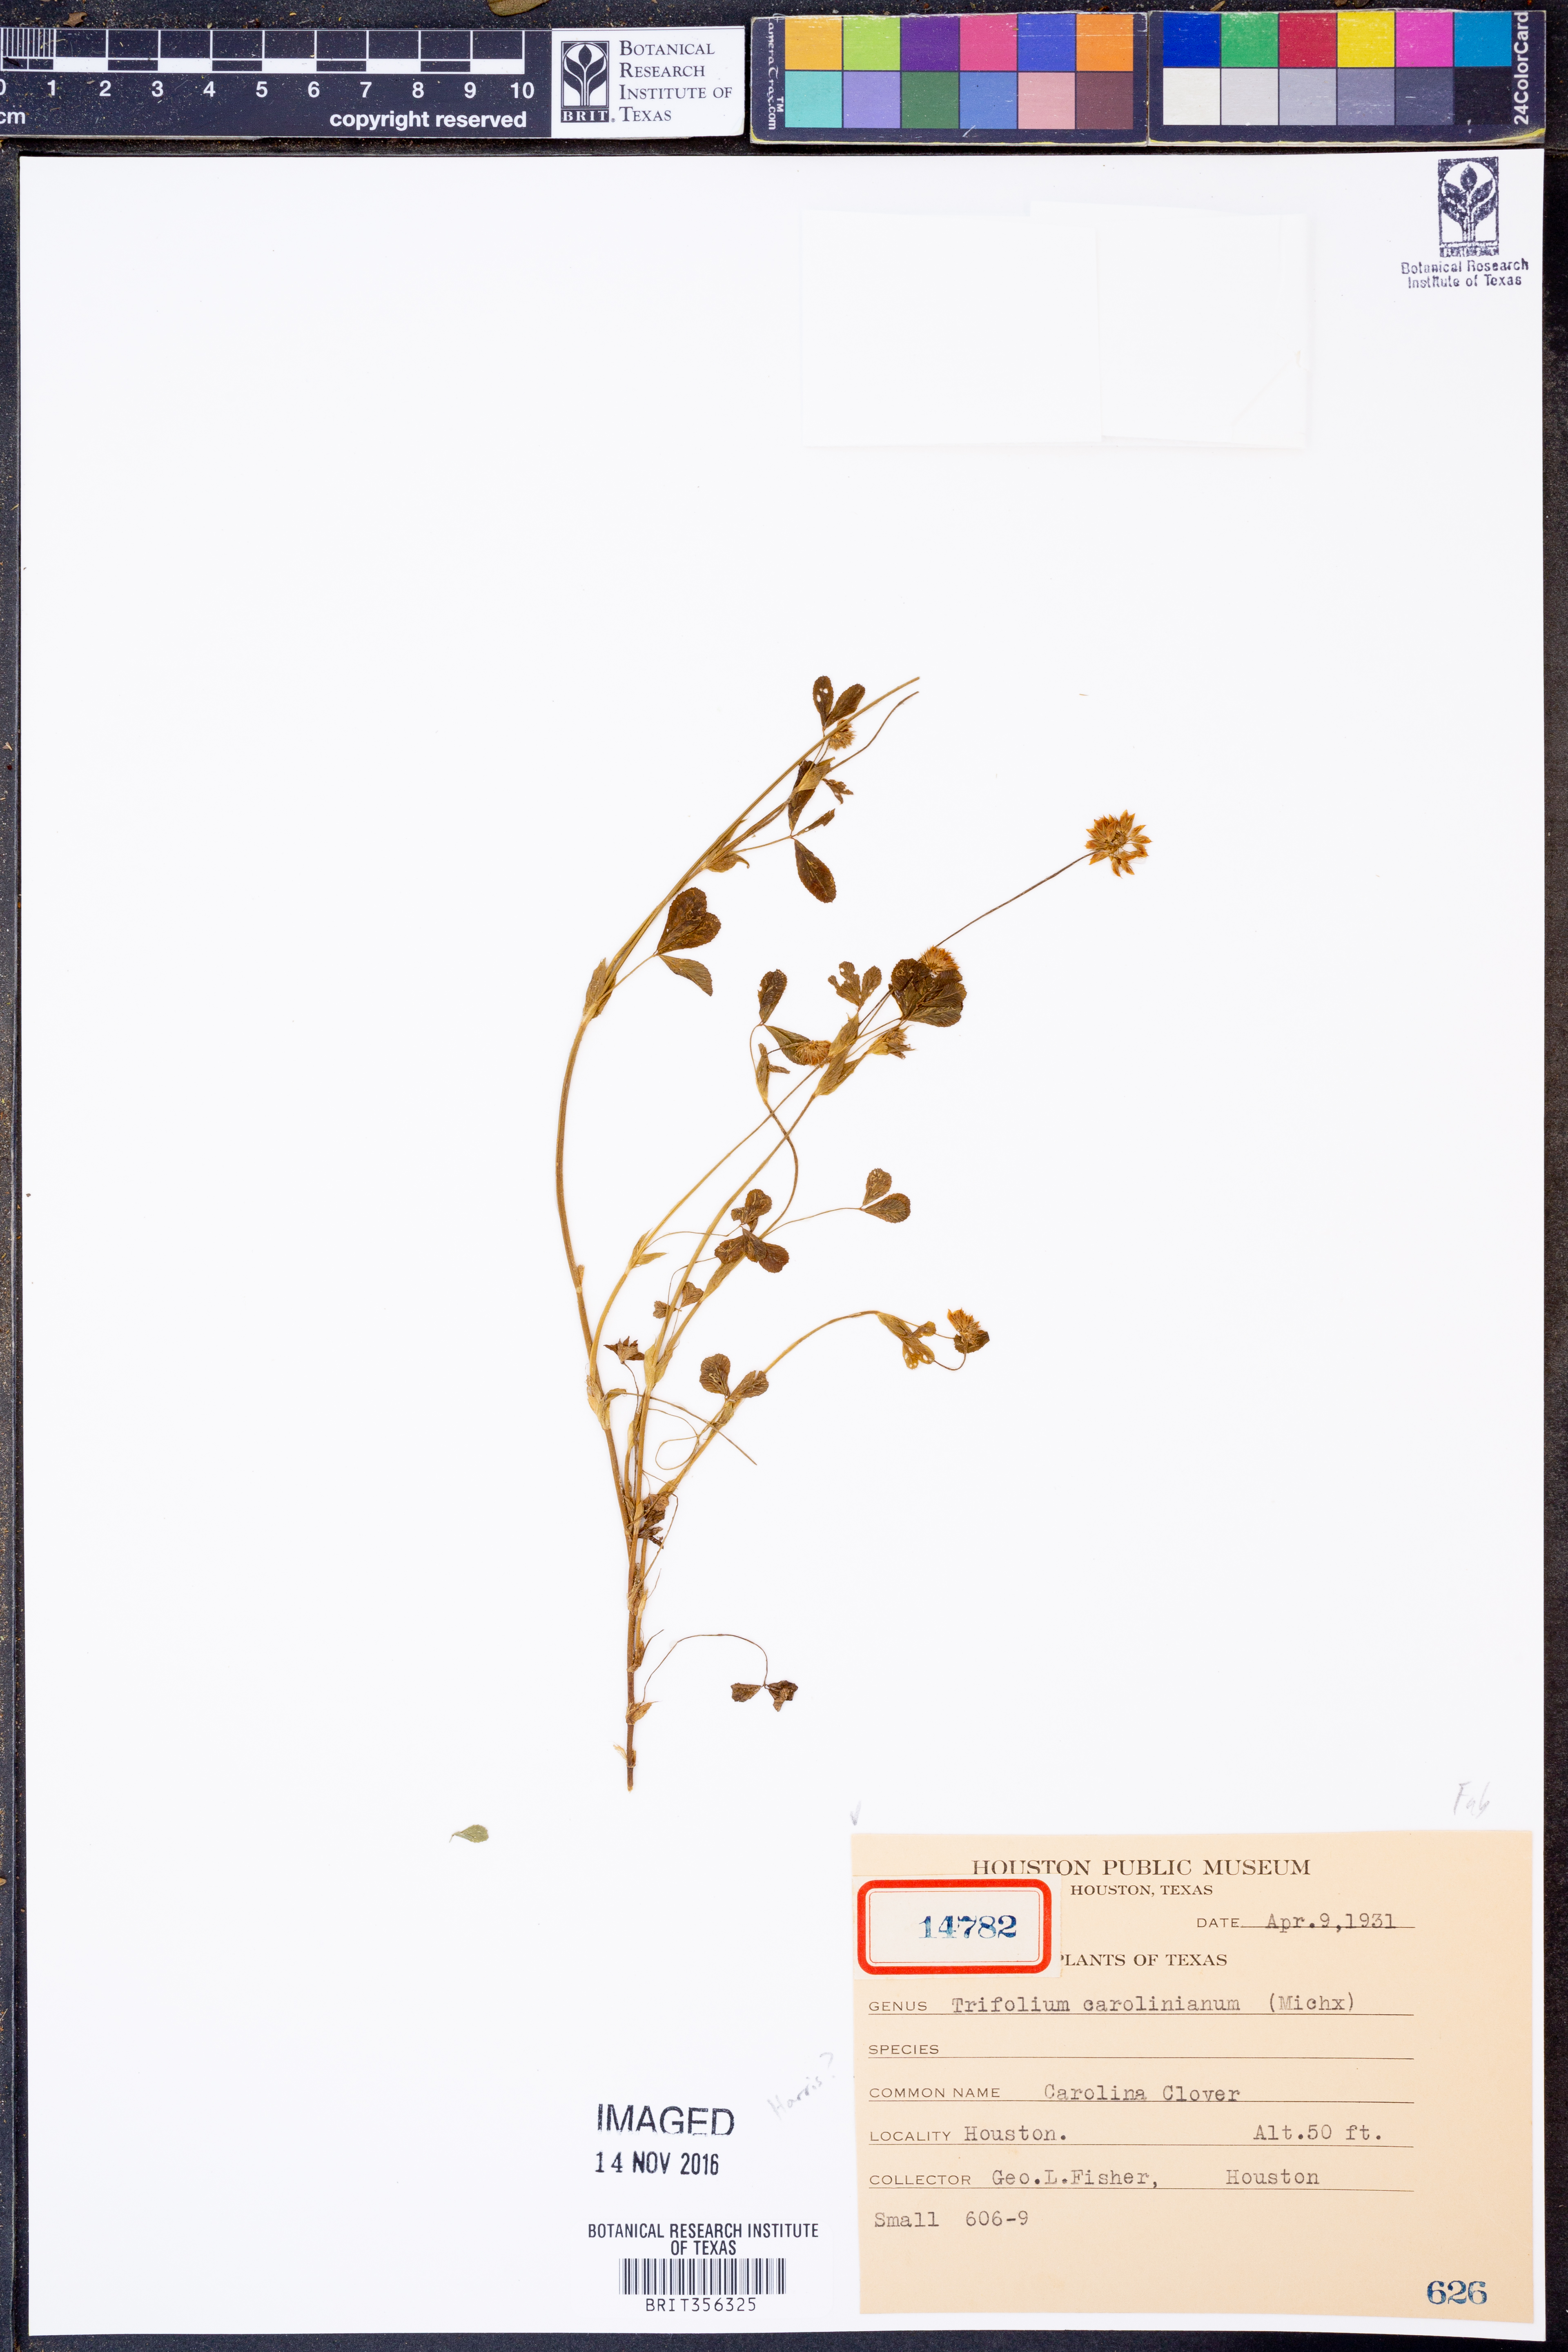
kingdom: Plantae
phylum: Tracheophyta
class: Magnoliopsida
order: Fabales
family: Fabaceae
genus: Trifolium
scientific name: Trifolium carolinianum
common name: Wild white clover
